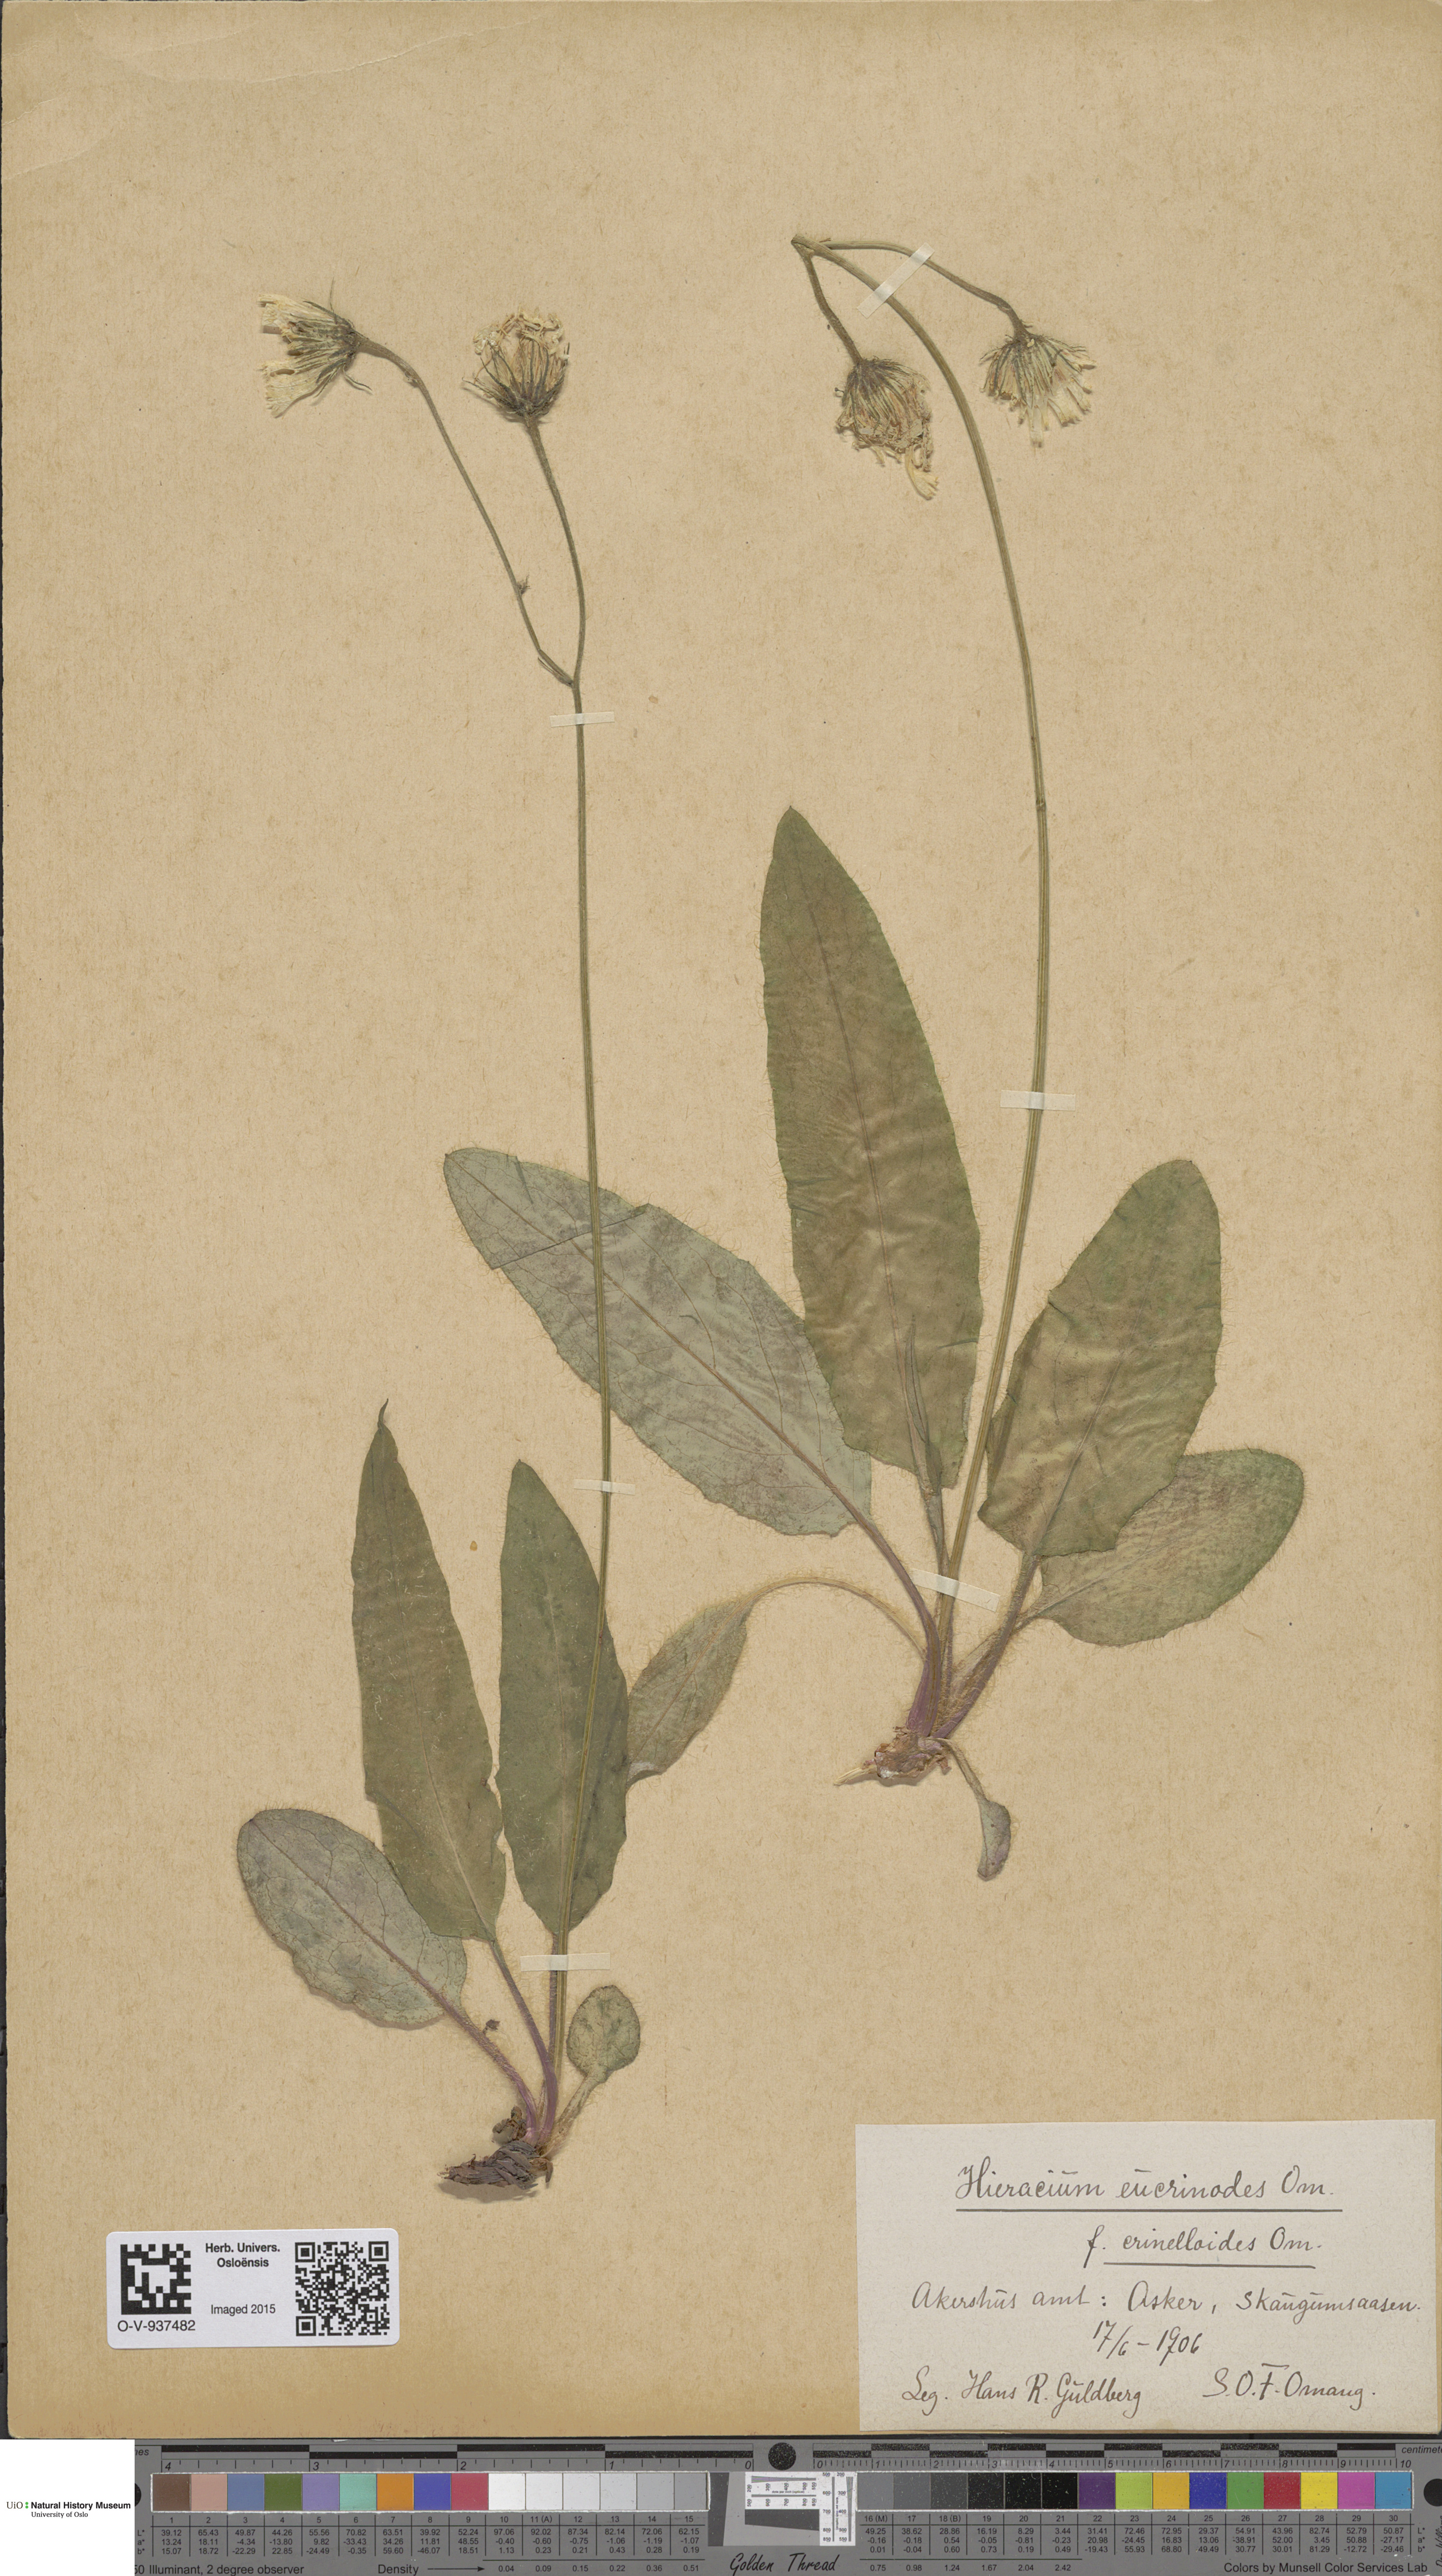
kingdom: Plantae
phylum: Tracheophyta
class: Magnoliopsida
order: Asterales
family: Asteraceae
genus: Hieracium
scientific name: Hieracium
